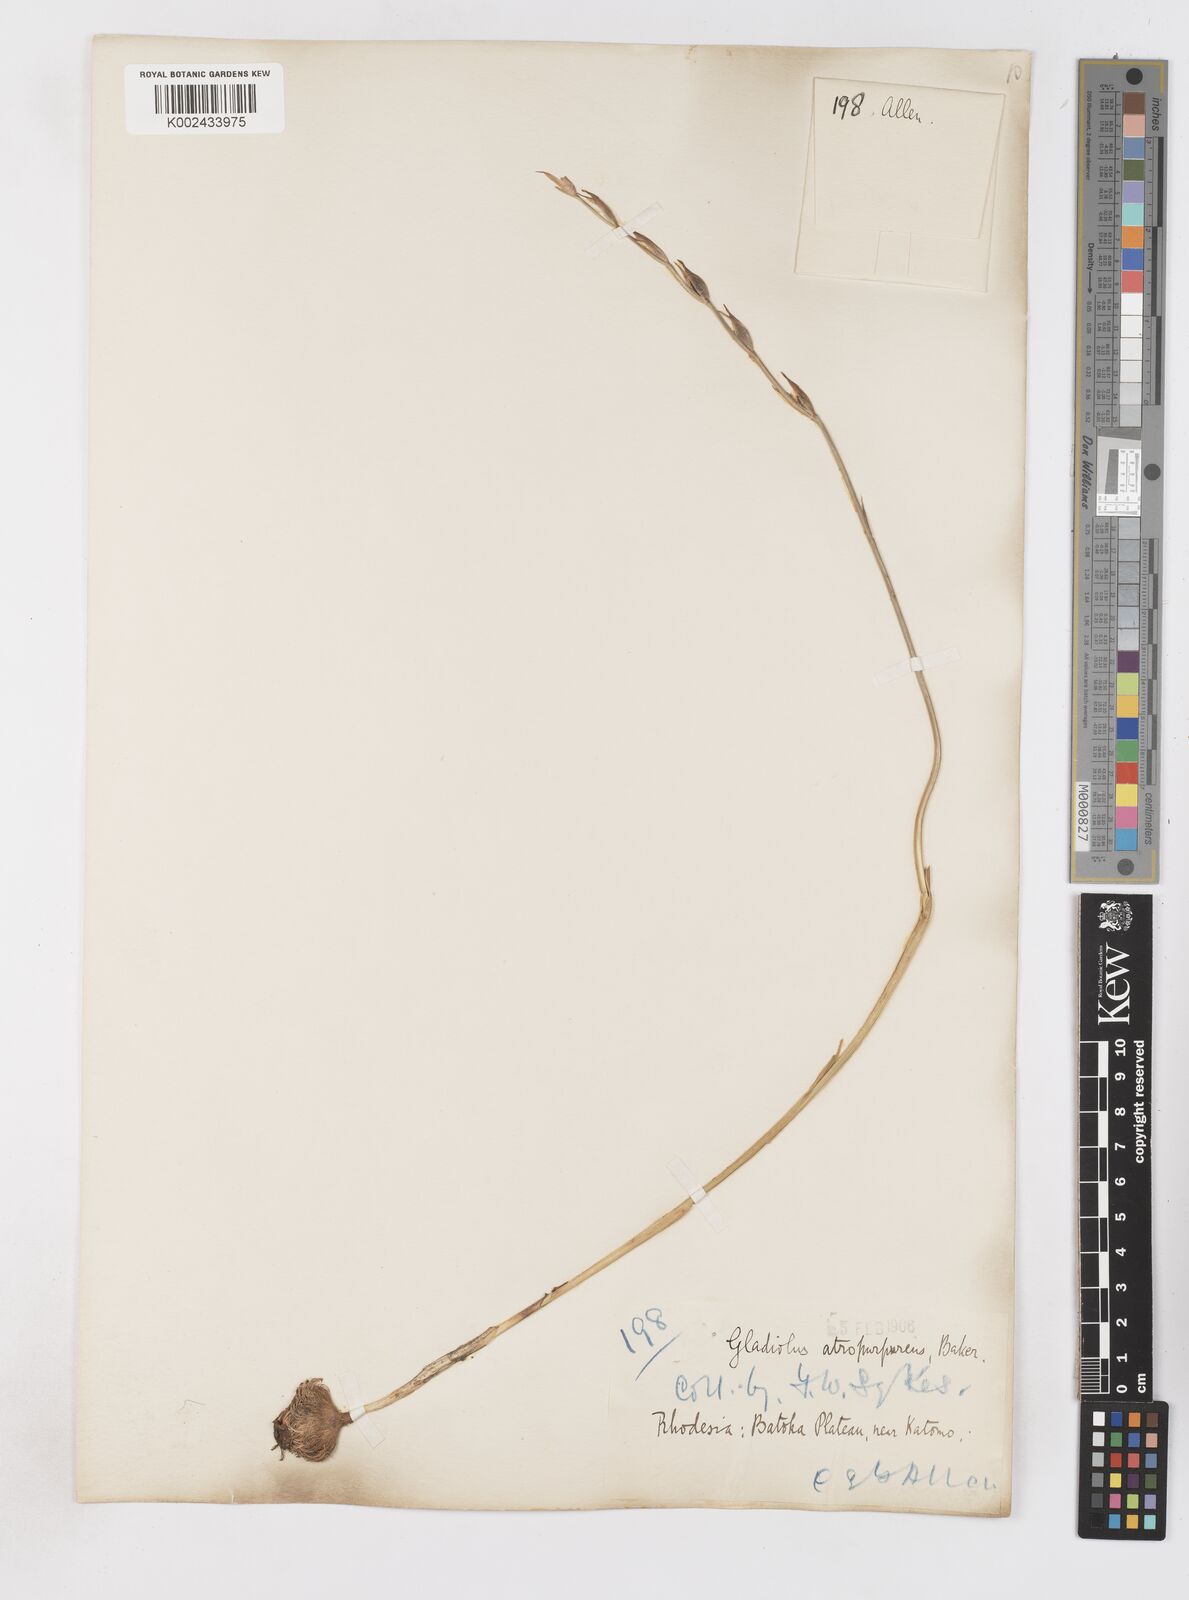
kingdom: Plantae
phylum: Tracheophyta
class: Liliopsida
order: Asparagales
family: Iridaceae
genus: Gladiolus
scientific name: Gladiolus atropurpureus
